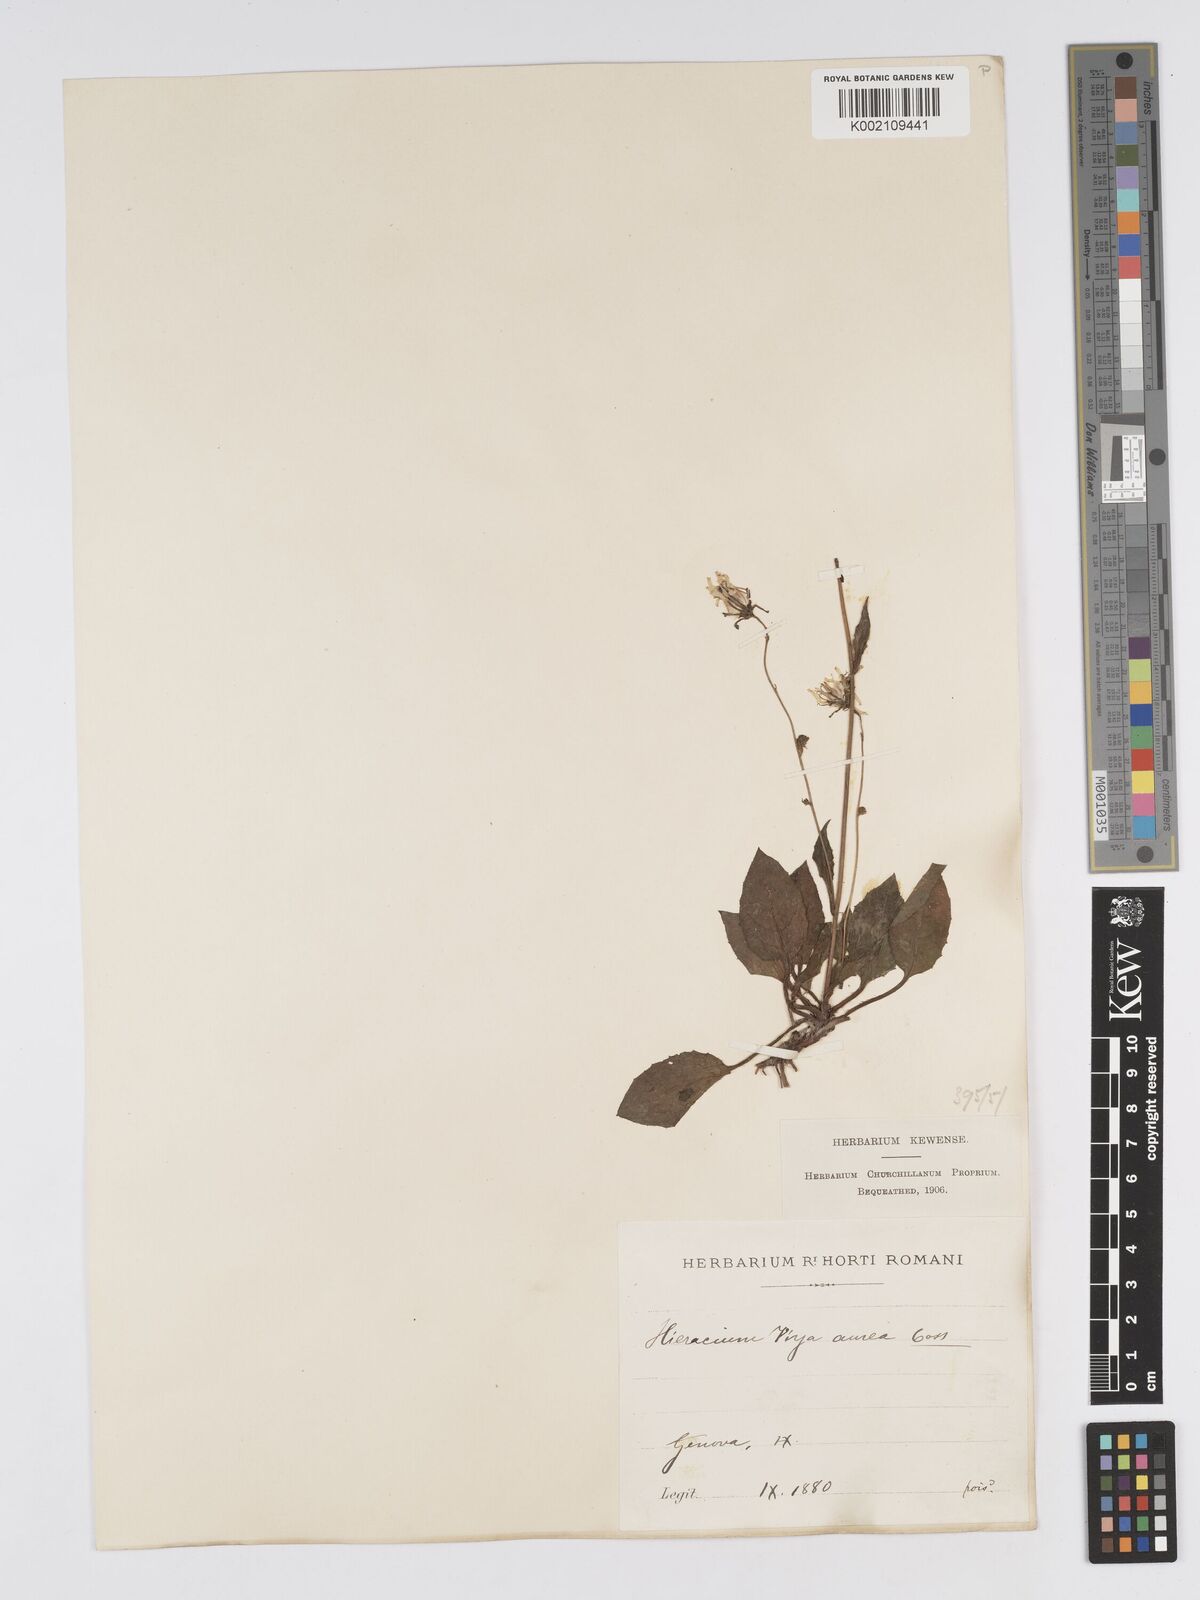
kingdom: Plantae
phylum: Tracheophyta
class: Magnoliopsida
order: Asterales
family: Asteraceae
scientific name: Asteraceae
